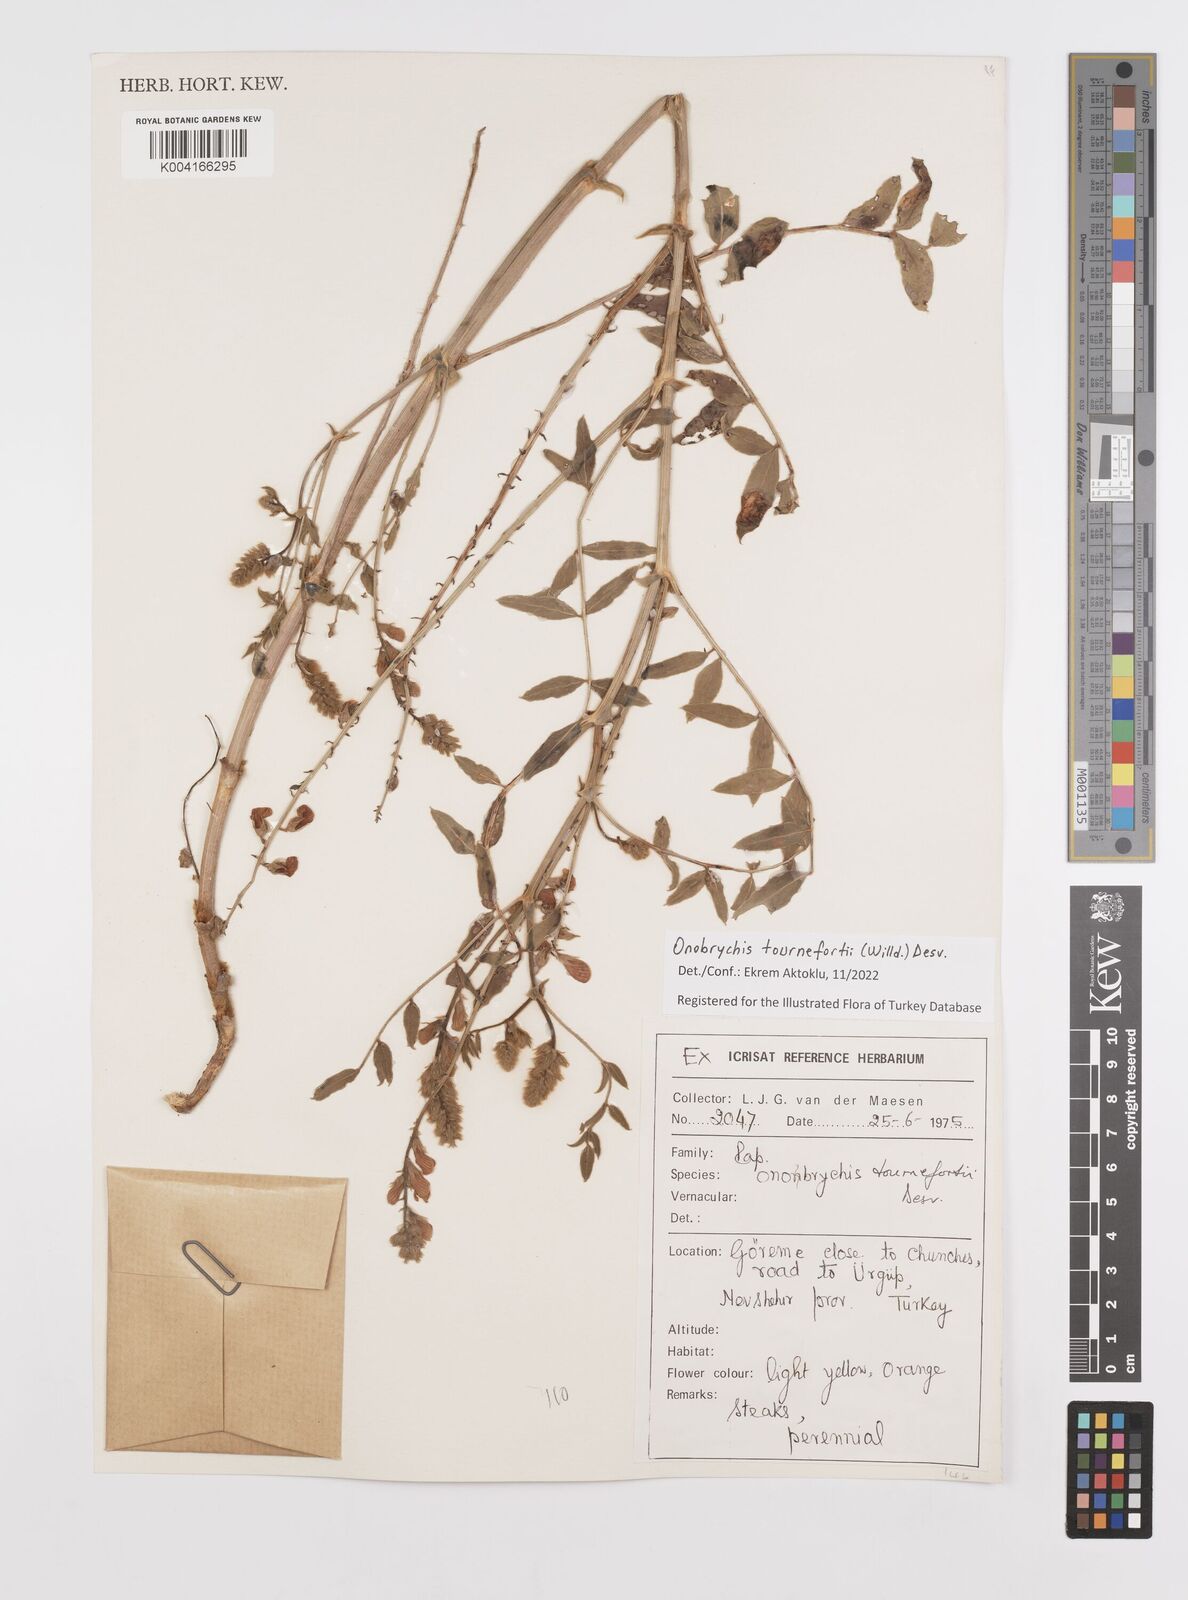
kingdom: Plantae
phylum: Tracheophyta
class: Magnoliopsida
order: Fabales
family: Fabaceae
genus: Onobrychis
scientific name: Onobrychis tournefortii
